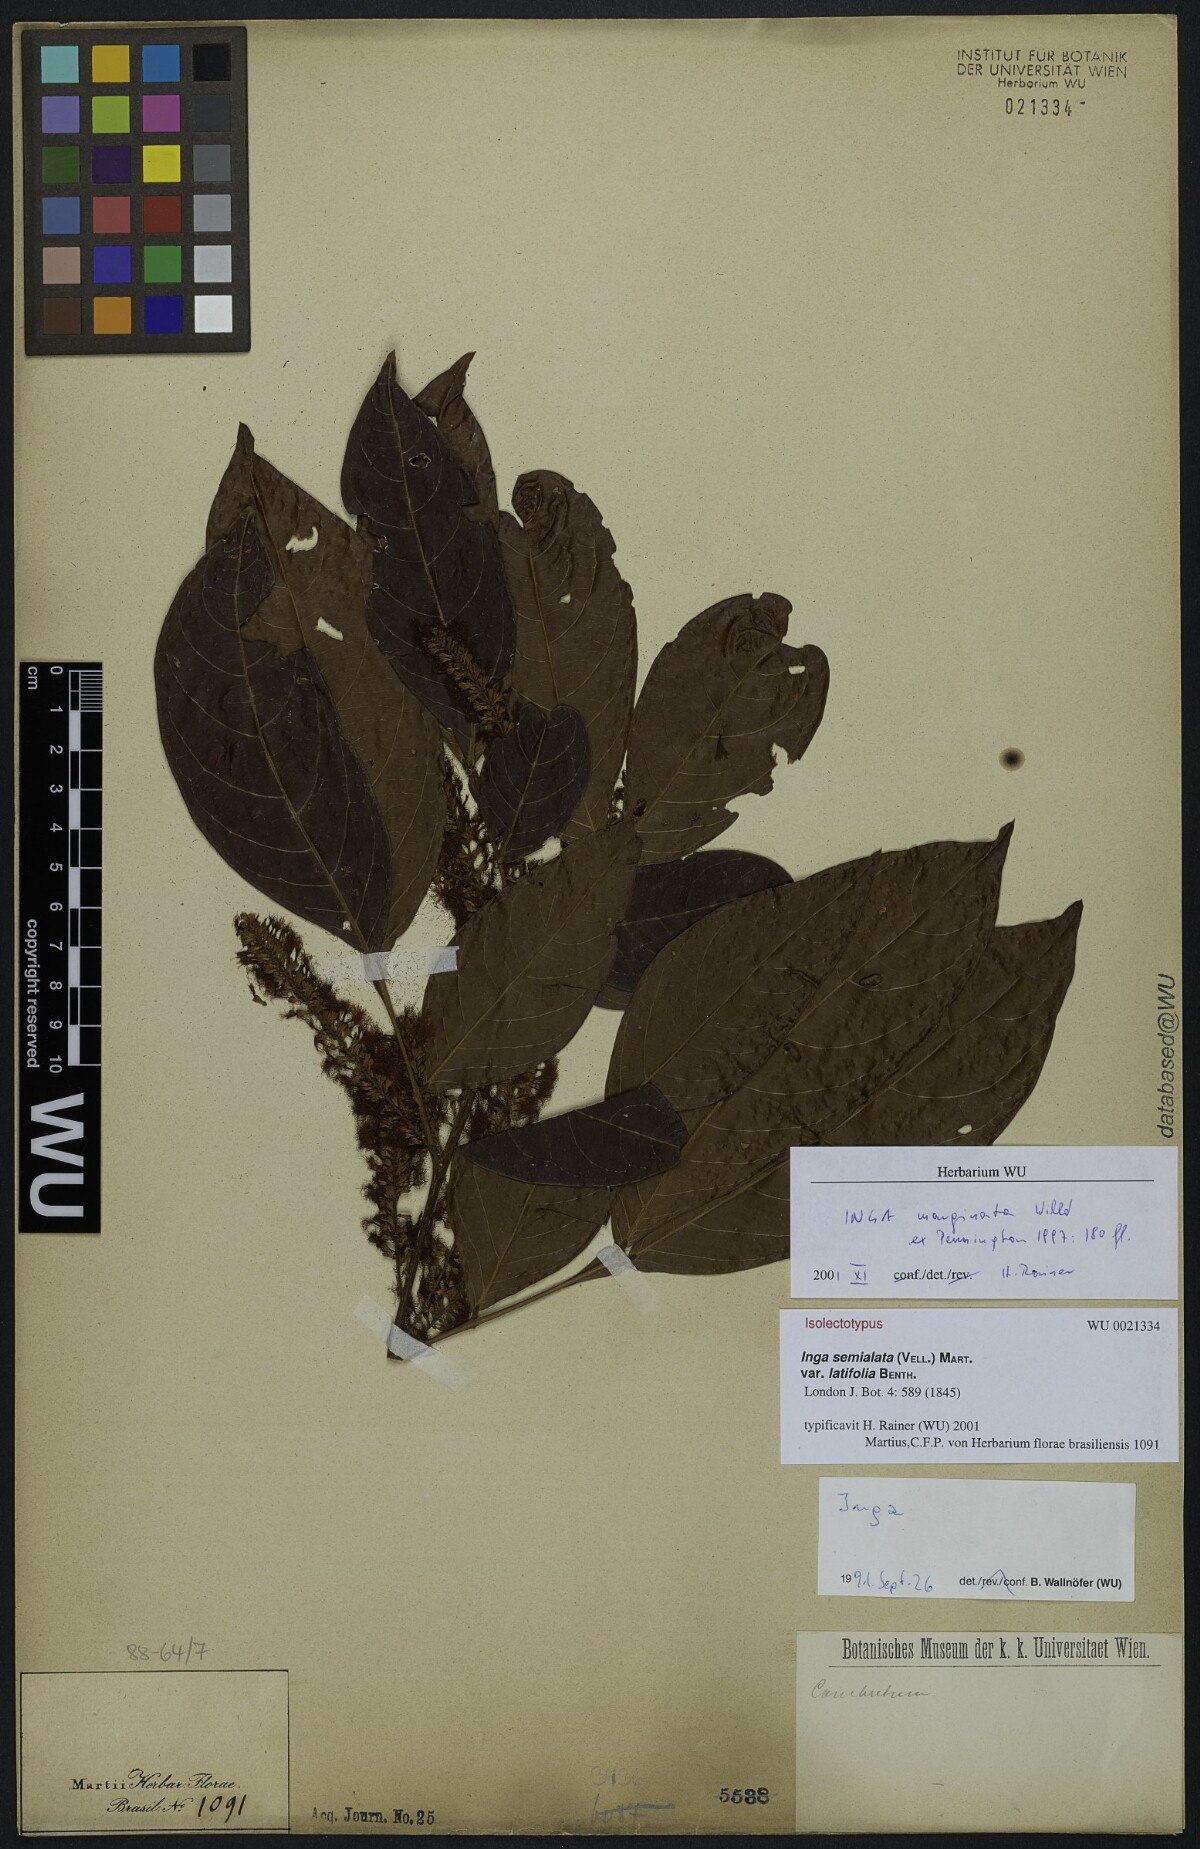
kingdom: Plantae
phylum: Tracheophyta
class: Magnoliopsida
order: Fabales
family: Fabaceae
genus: Inga
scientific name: Inga marginata
